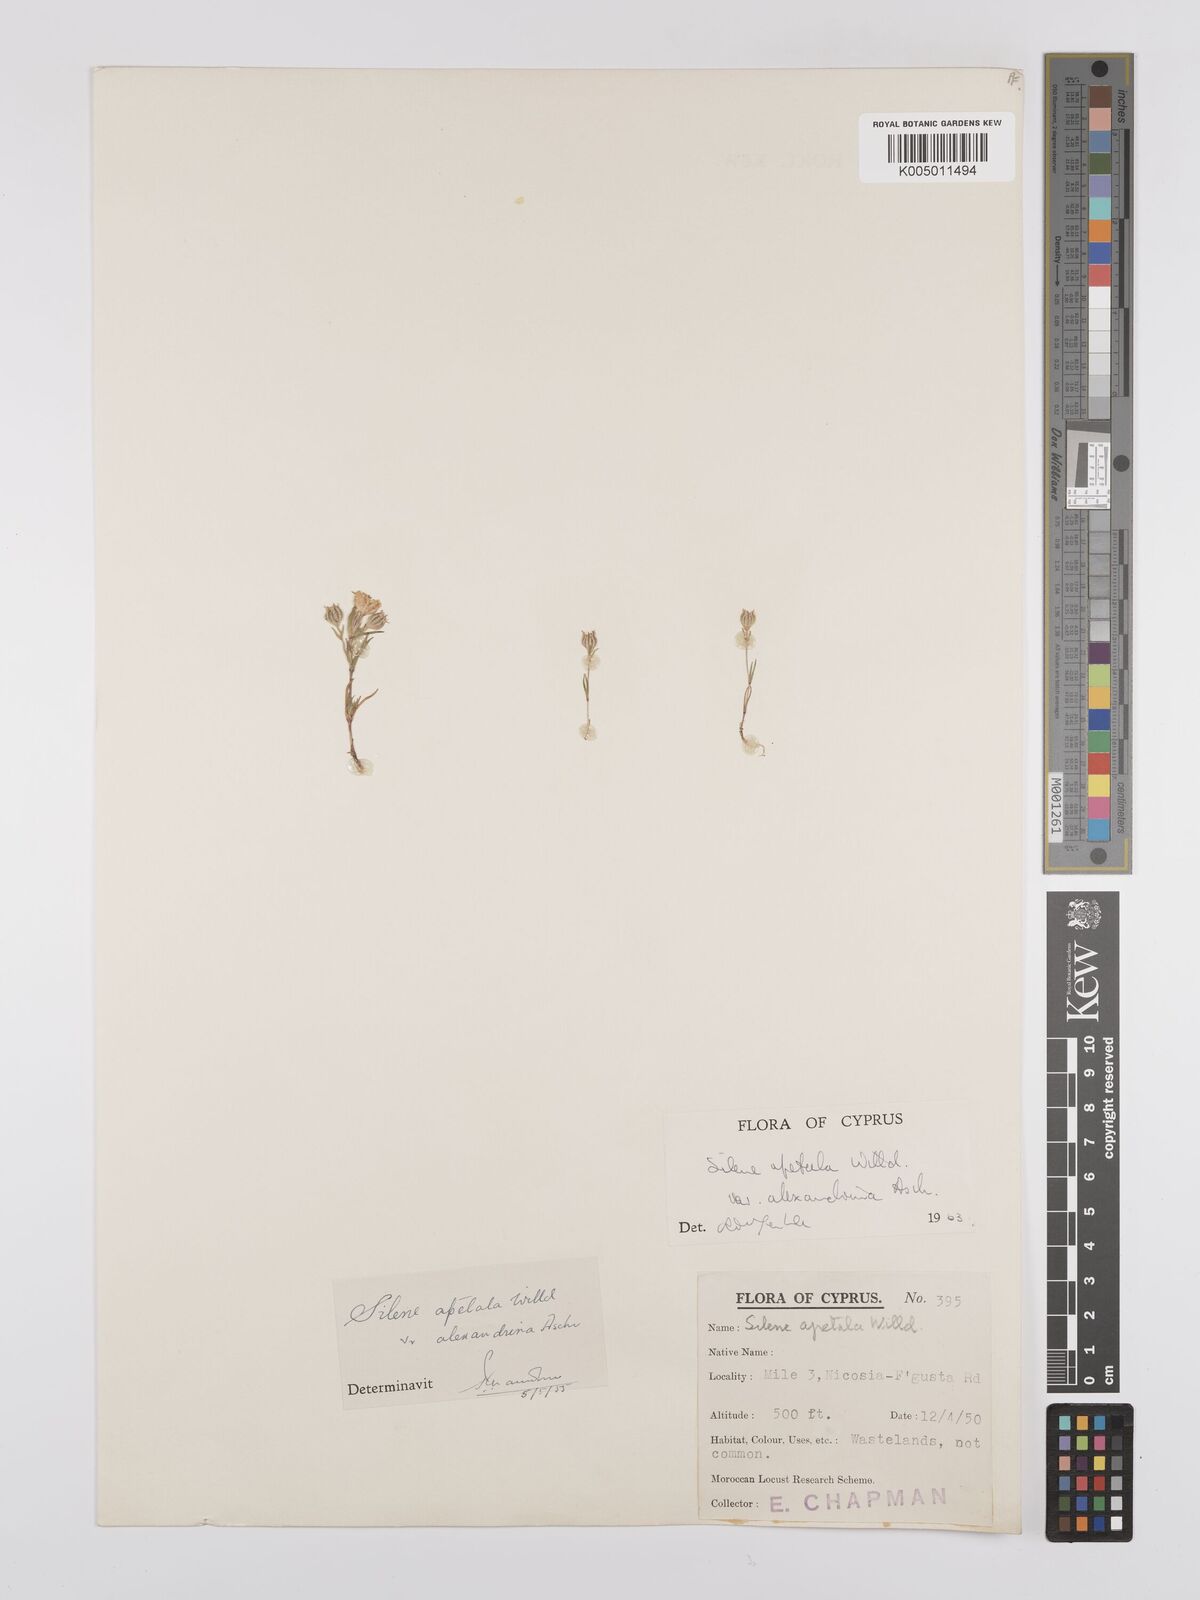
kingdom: Plantae
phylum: Tracheophyta
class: Magnoliopsida
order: Caryophyllales
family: Caryophyllaceae
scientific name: Caryophyllaceae
